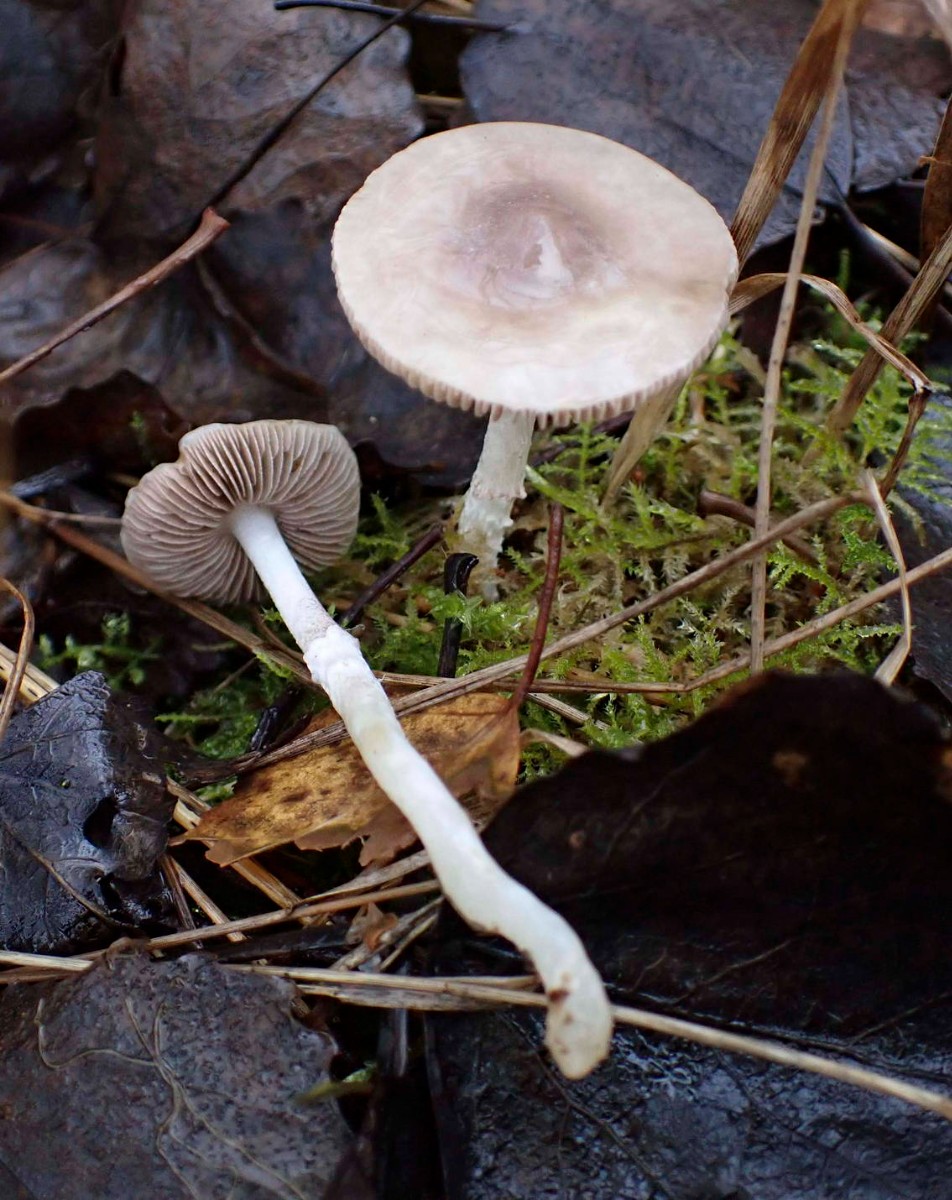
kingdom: Fungi
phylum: Basidiomycota
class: Agaricomycetes
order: Agaricales
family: Strophariaceae
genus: Stropharia
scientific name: Stropharia inuncta
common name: lillabrun bredblad
